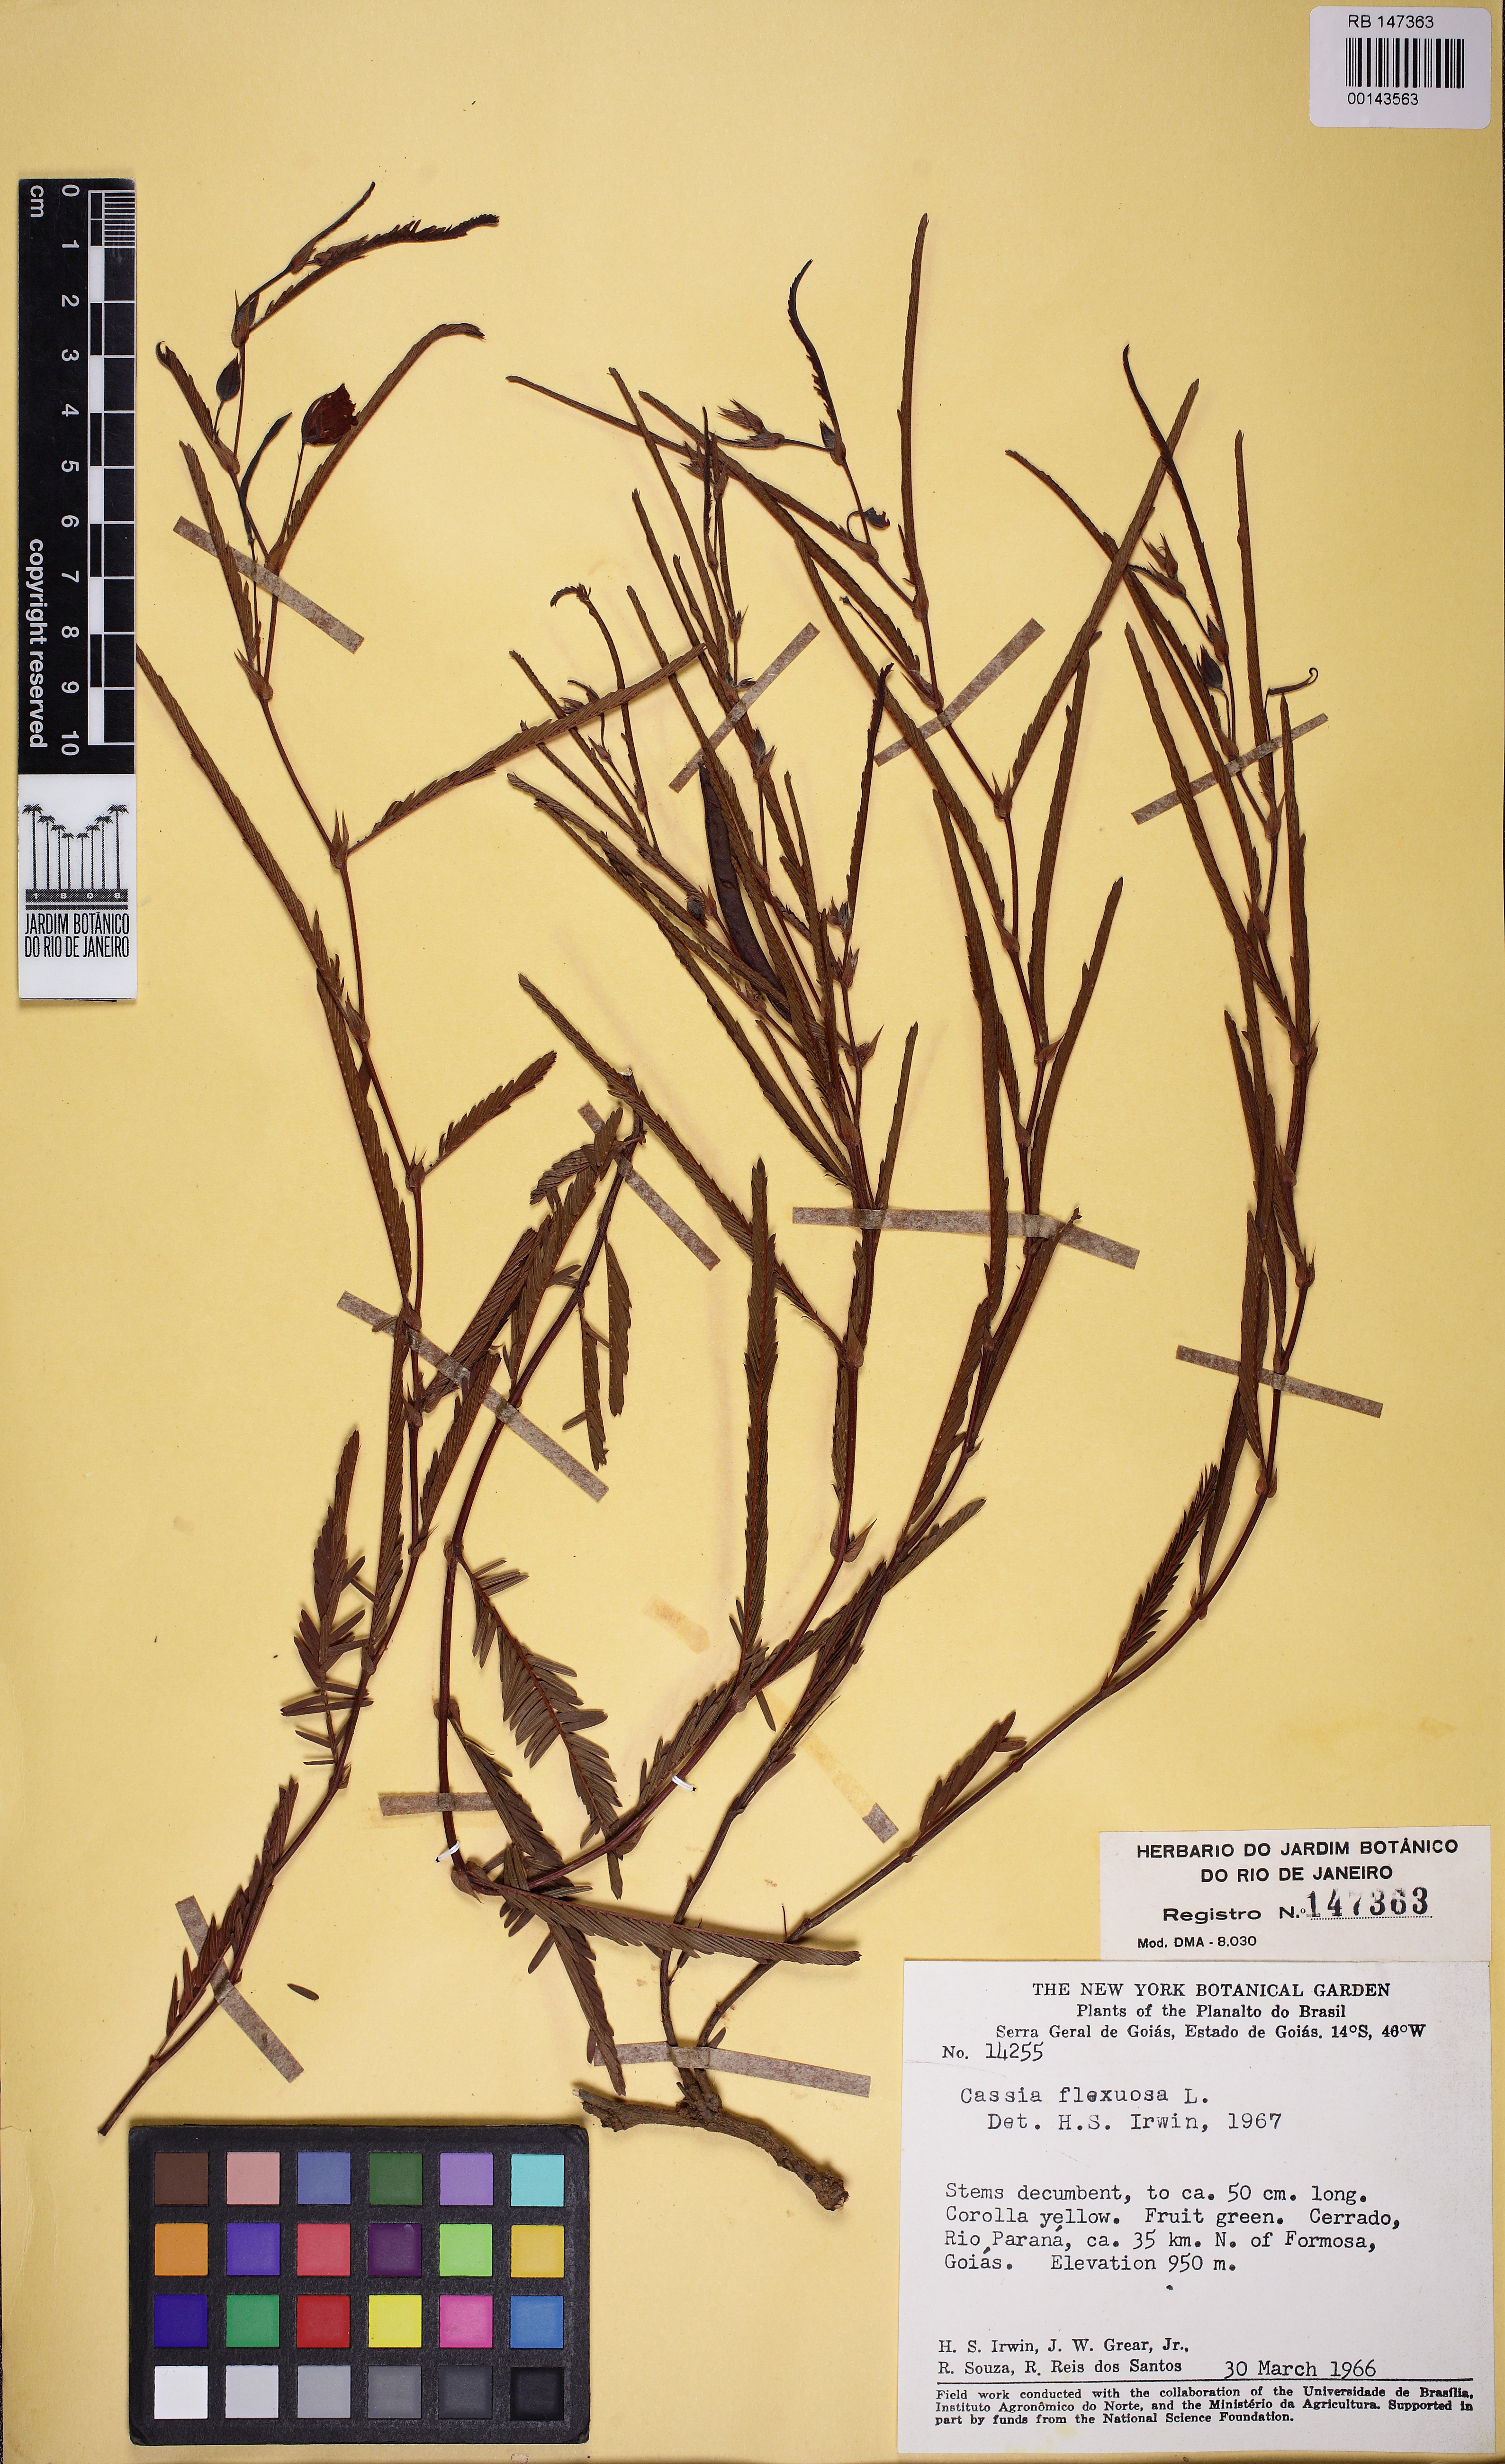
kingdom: Plantae
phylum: Tracheophyta
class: Magnoliopsida
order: Fabales
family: Fabaceae
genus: Chamaecrista
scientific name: Chamaecrista flexuosa
